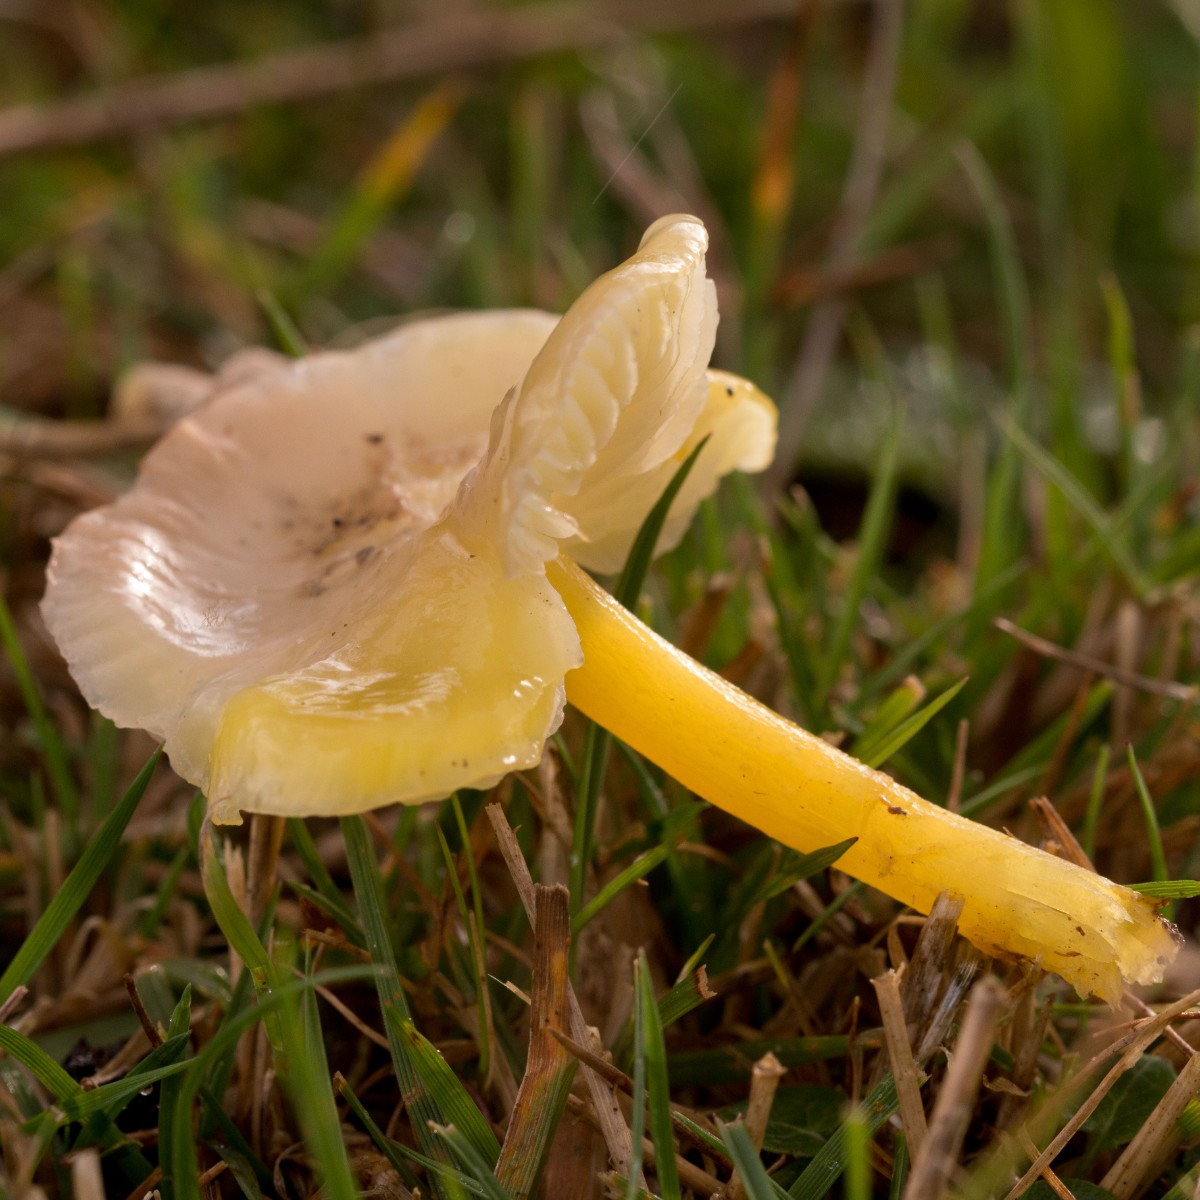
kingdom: Fungi
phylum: Basidiomycota
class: Agaricomycetes
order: Agaricales
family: Hygrophoraceae
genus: Hygrocybe
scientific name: Hygrocybe chlorophana
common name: gul vokshat
